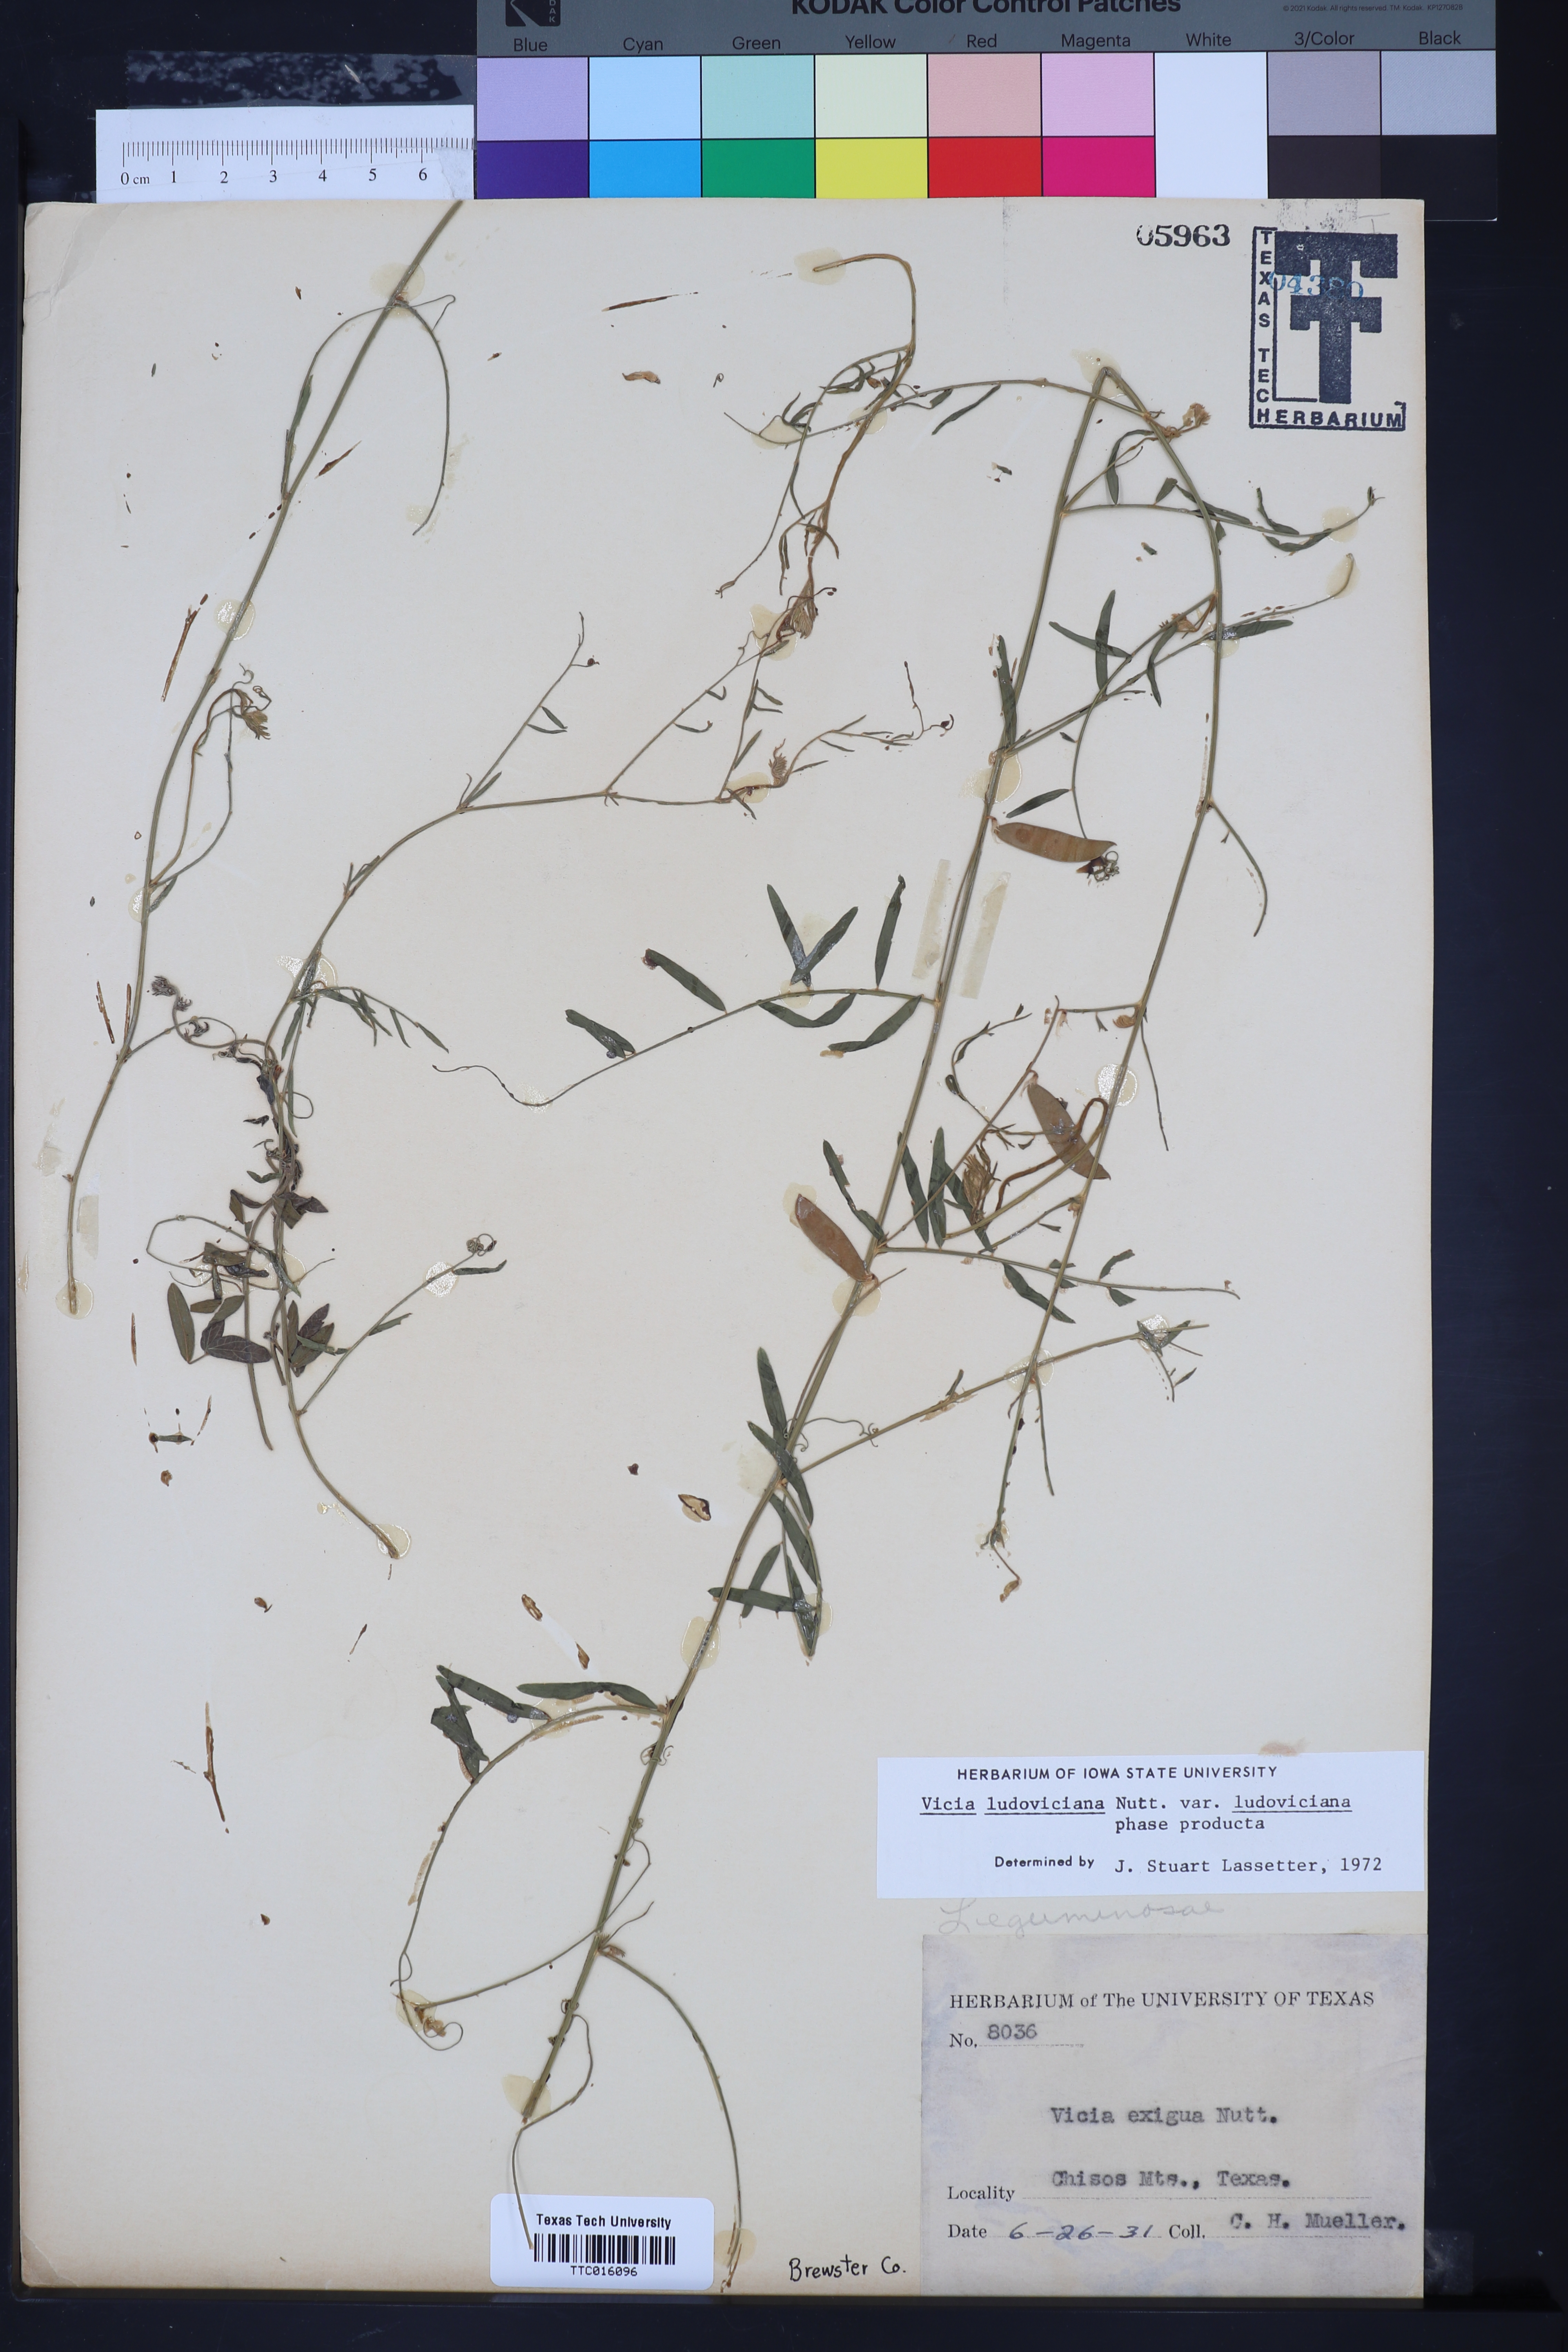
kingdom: Plantae
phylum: Tracheophyta
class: Magnoliopsida
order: Fabales
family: Fabaceae
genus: Vicia
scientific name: Vicia ludoviciana
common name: Louisiana vetch
